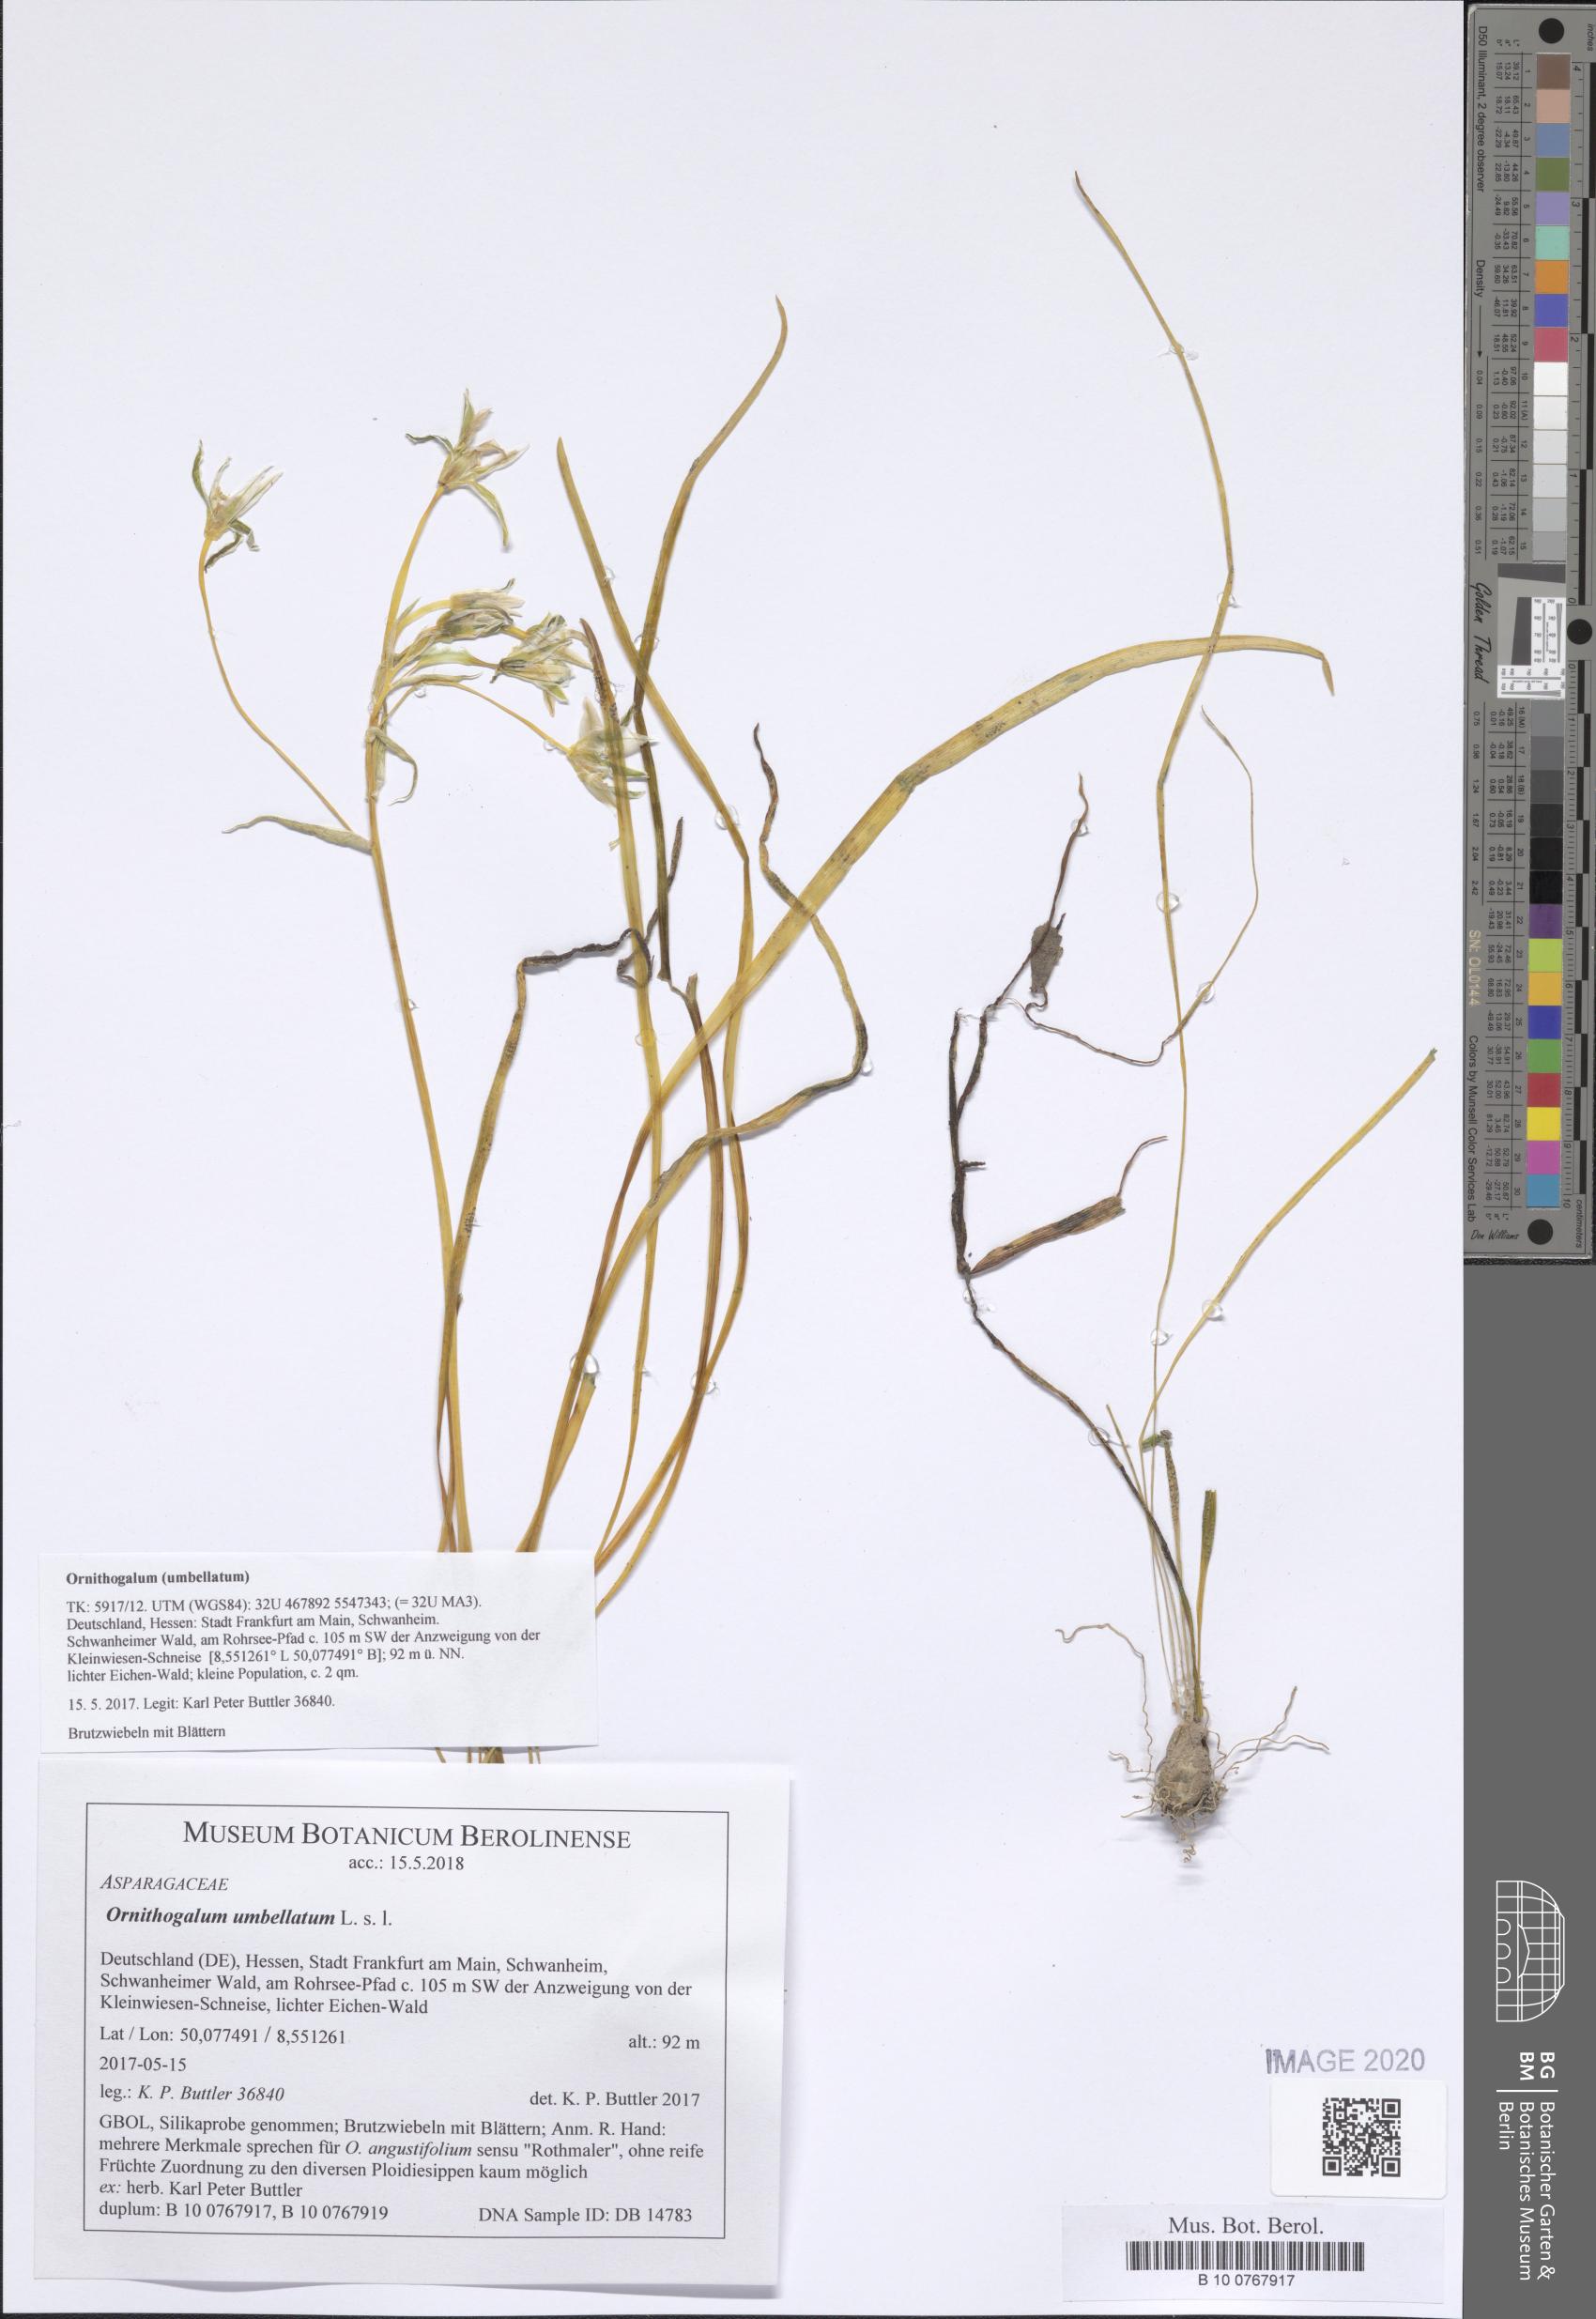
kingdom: Plantae
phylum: Tracheophyta
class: Liliopsida
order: Asparagales
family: Asparagaceae
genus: Ornithogalum
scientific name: Ornithogalum umbellatum
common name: Garden star-of-bethlehem
